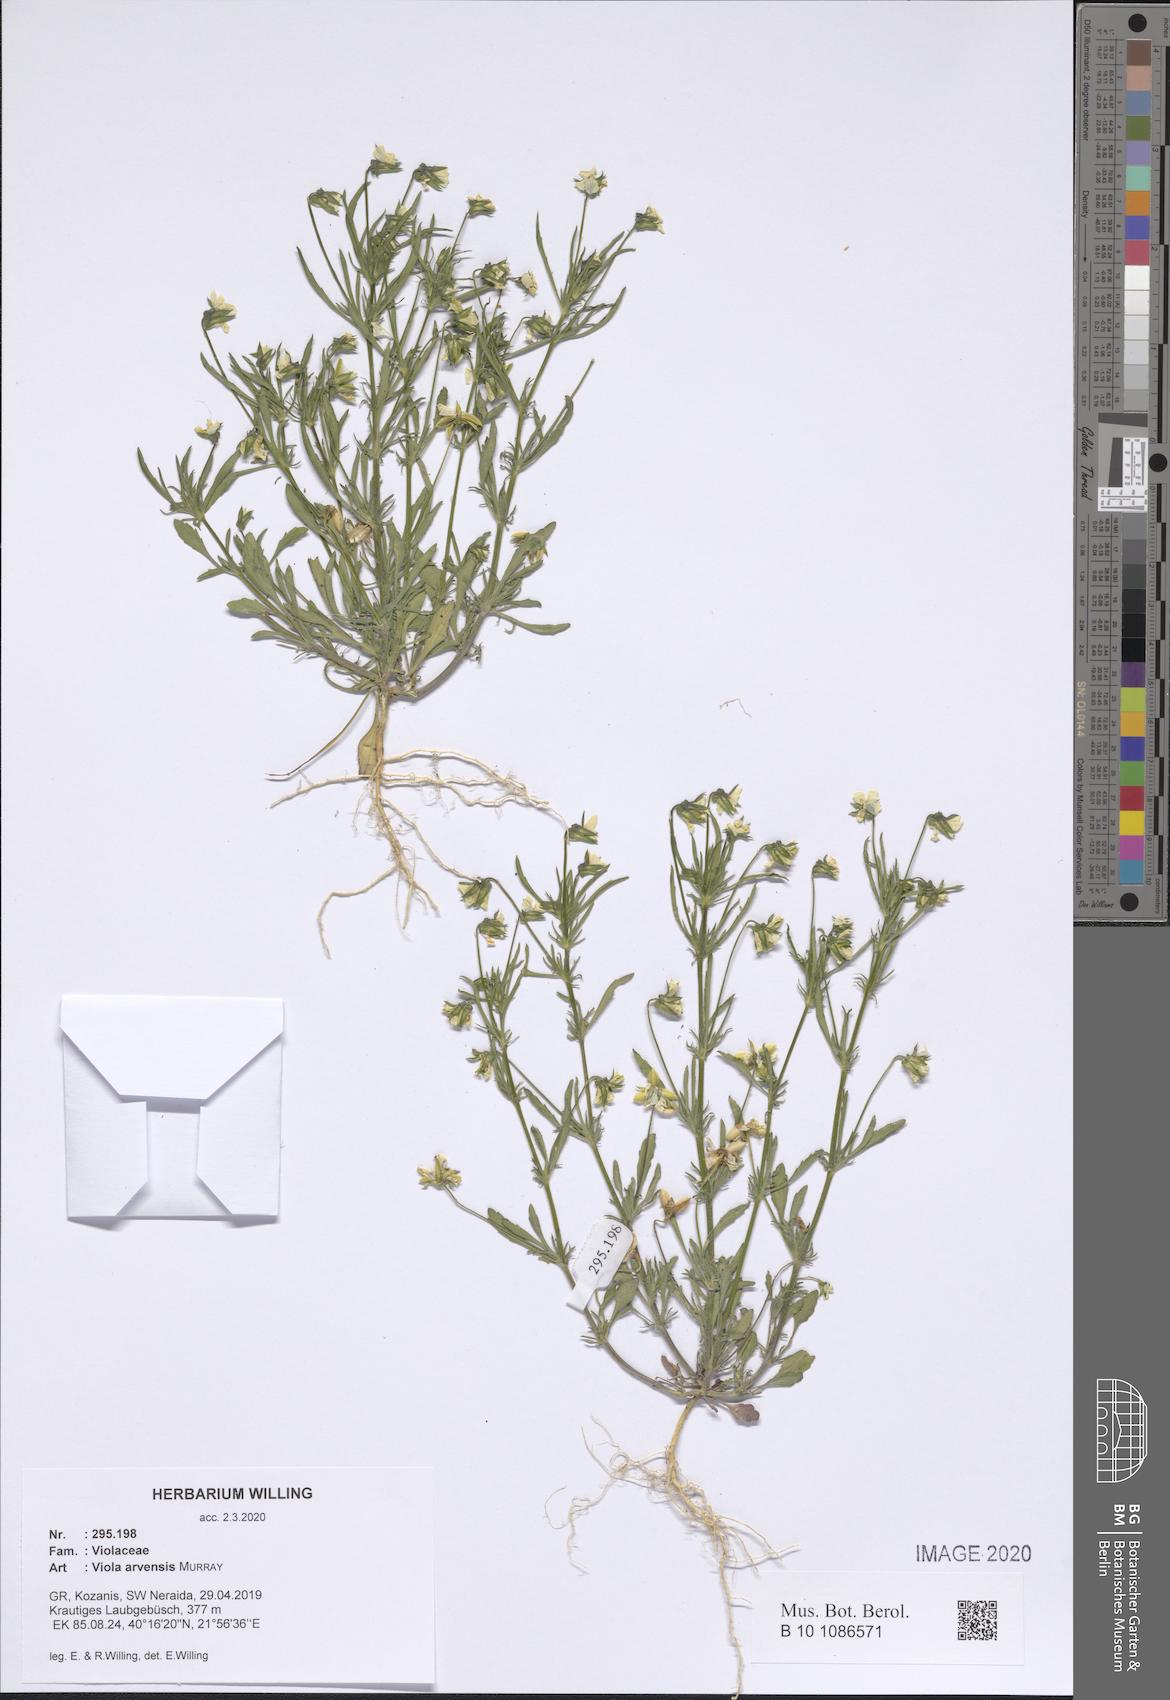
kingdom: Plantae
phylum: Tracheophyta
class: Magnoliopsida
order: Malpighiales
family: Violaceae
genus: Viola
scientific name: Viola arvensis
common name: Field pansy
